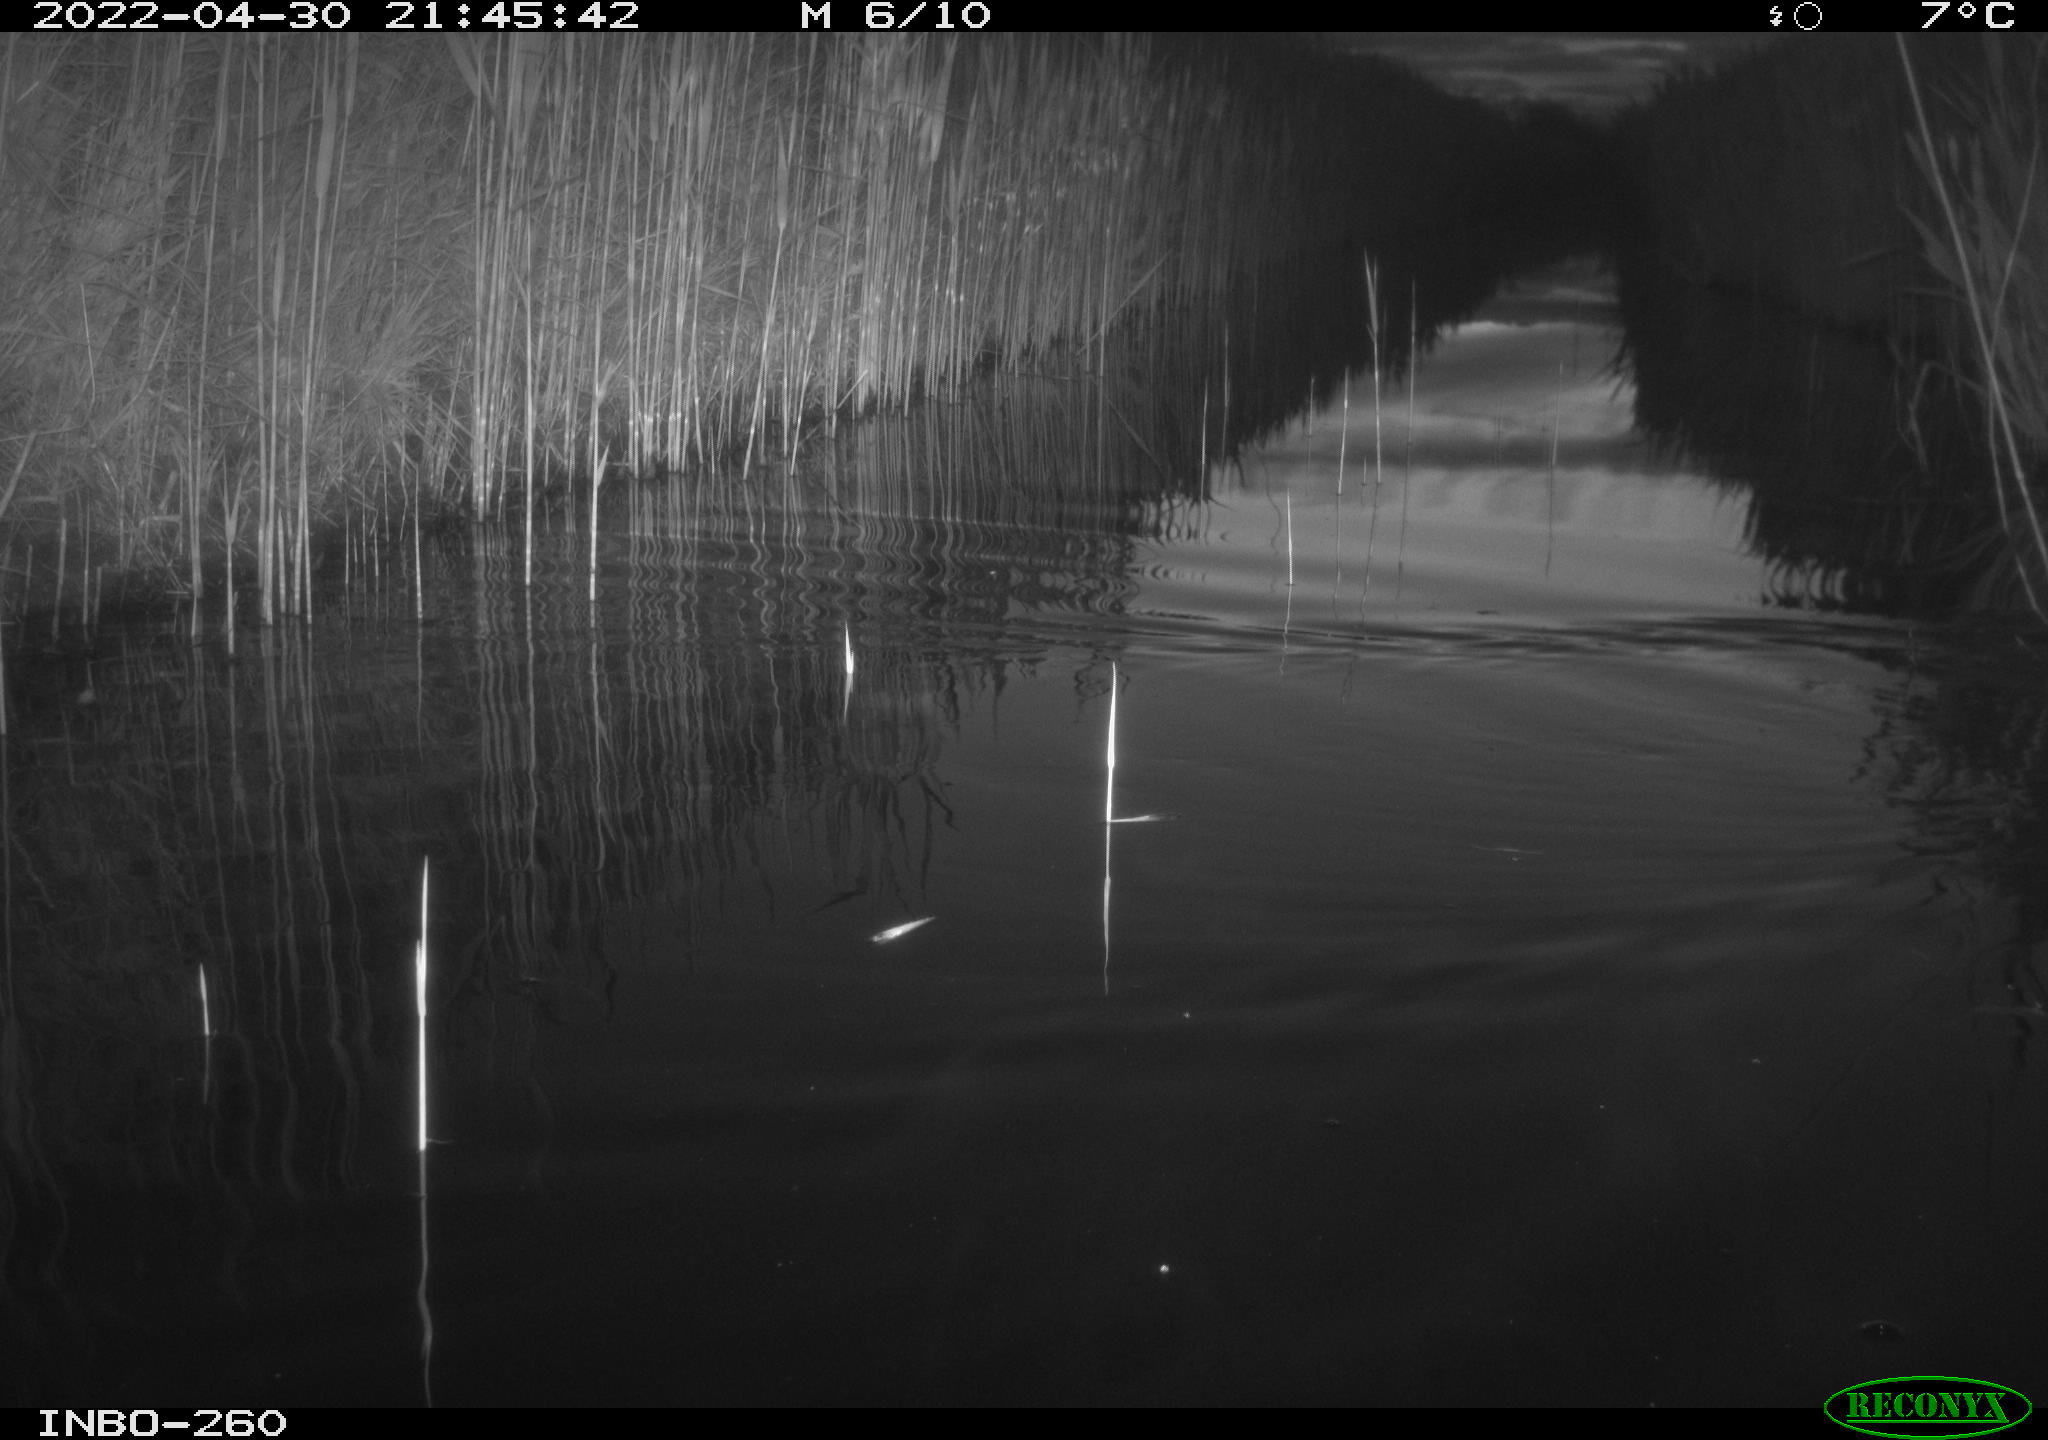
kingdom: Animalia
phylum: Chordata
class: Mammalia
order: Rodentia
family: Muridae
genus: Rattus
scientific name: Rattus norvegicus
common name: Brown rat
